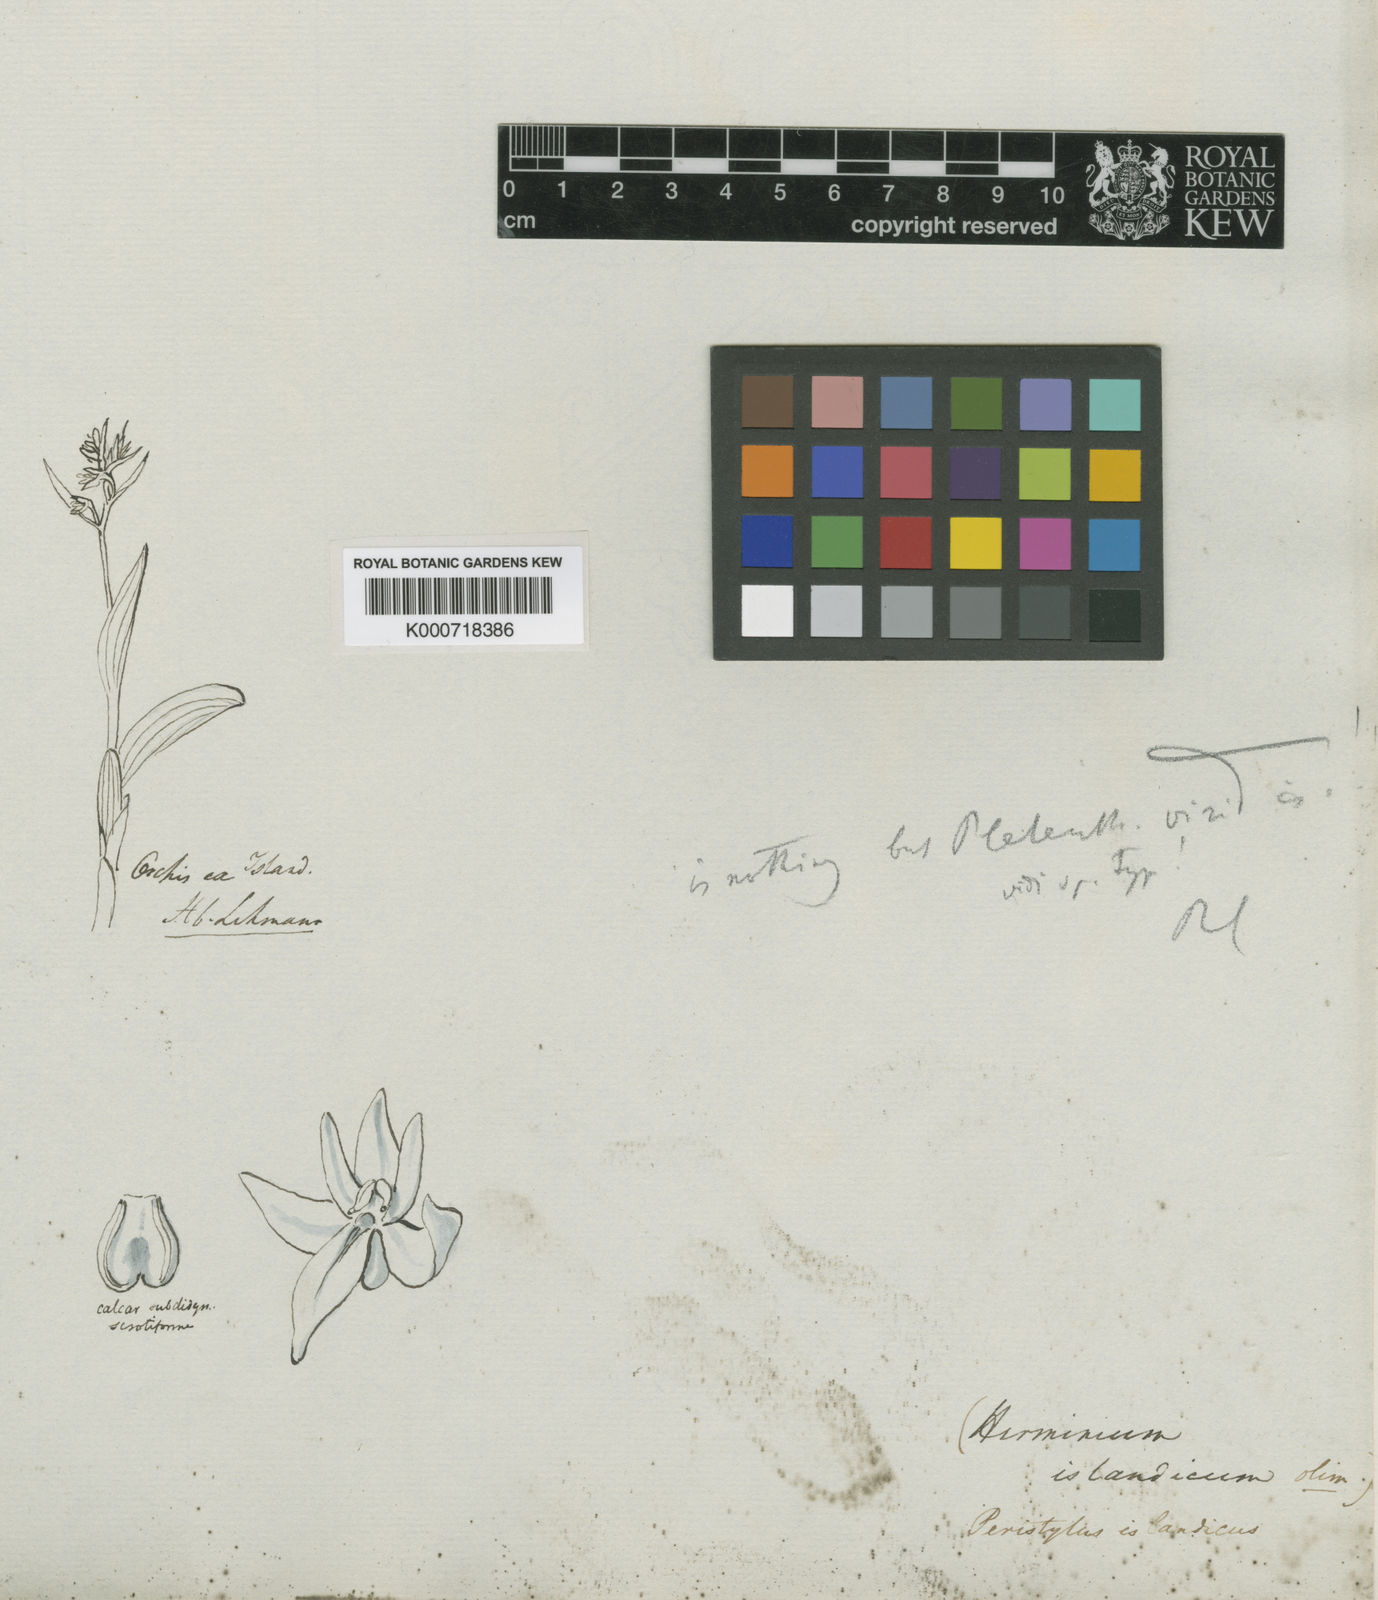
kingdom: Plantae
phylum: Tracheophyta
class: Liliopsida
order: Asparagales
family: Orchidaceae
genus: Dactylorhiza
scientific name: Dactylorhiza viridis
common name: Longbract frog orchid
